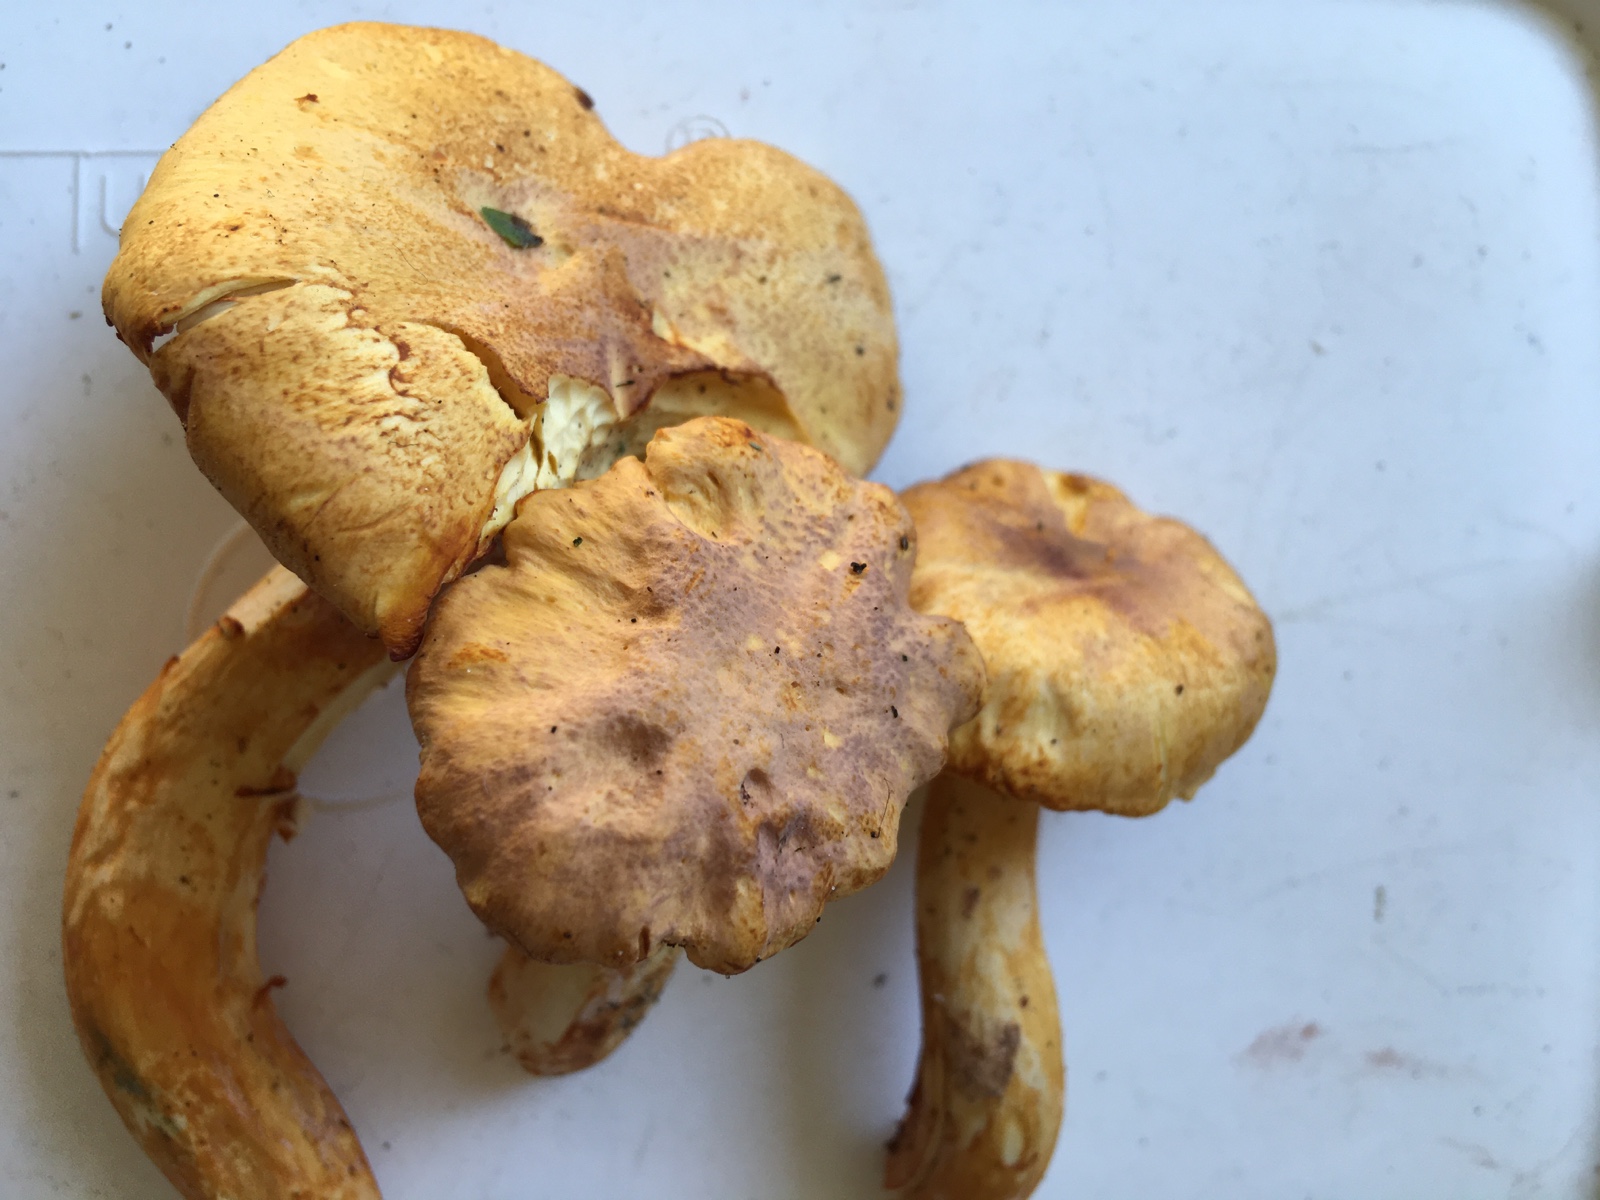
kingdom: Fungi
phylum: Basidiomycota
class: Agaricomycetes
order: Cantharellales
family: Hydnaceae
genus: Cantharellus
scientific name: Cantharellus amethysteus
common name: ametyst-kantarel
